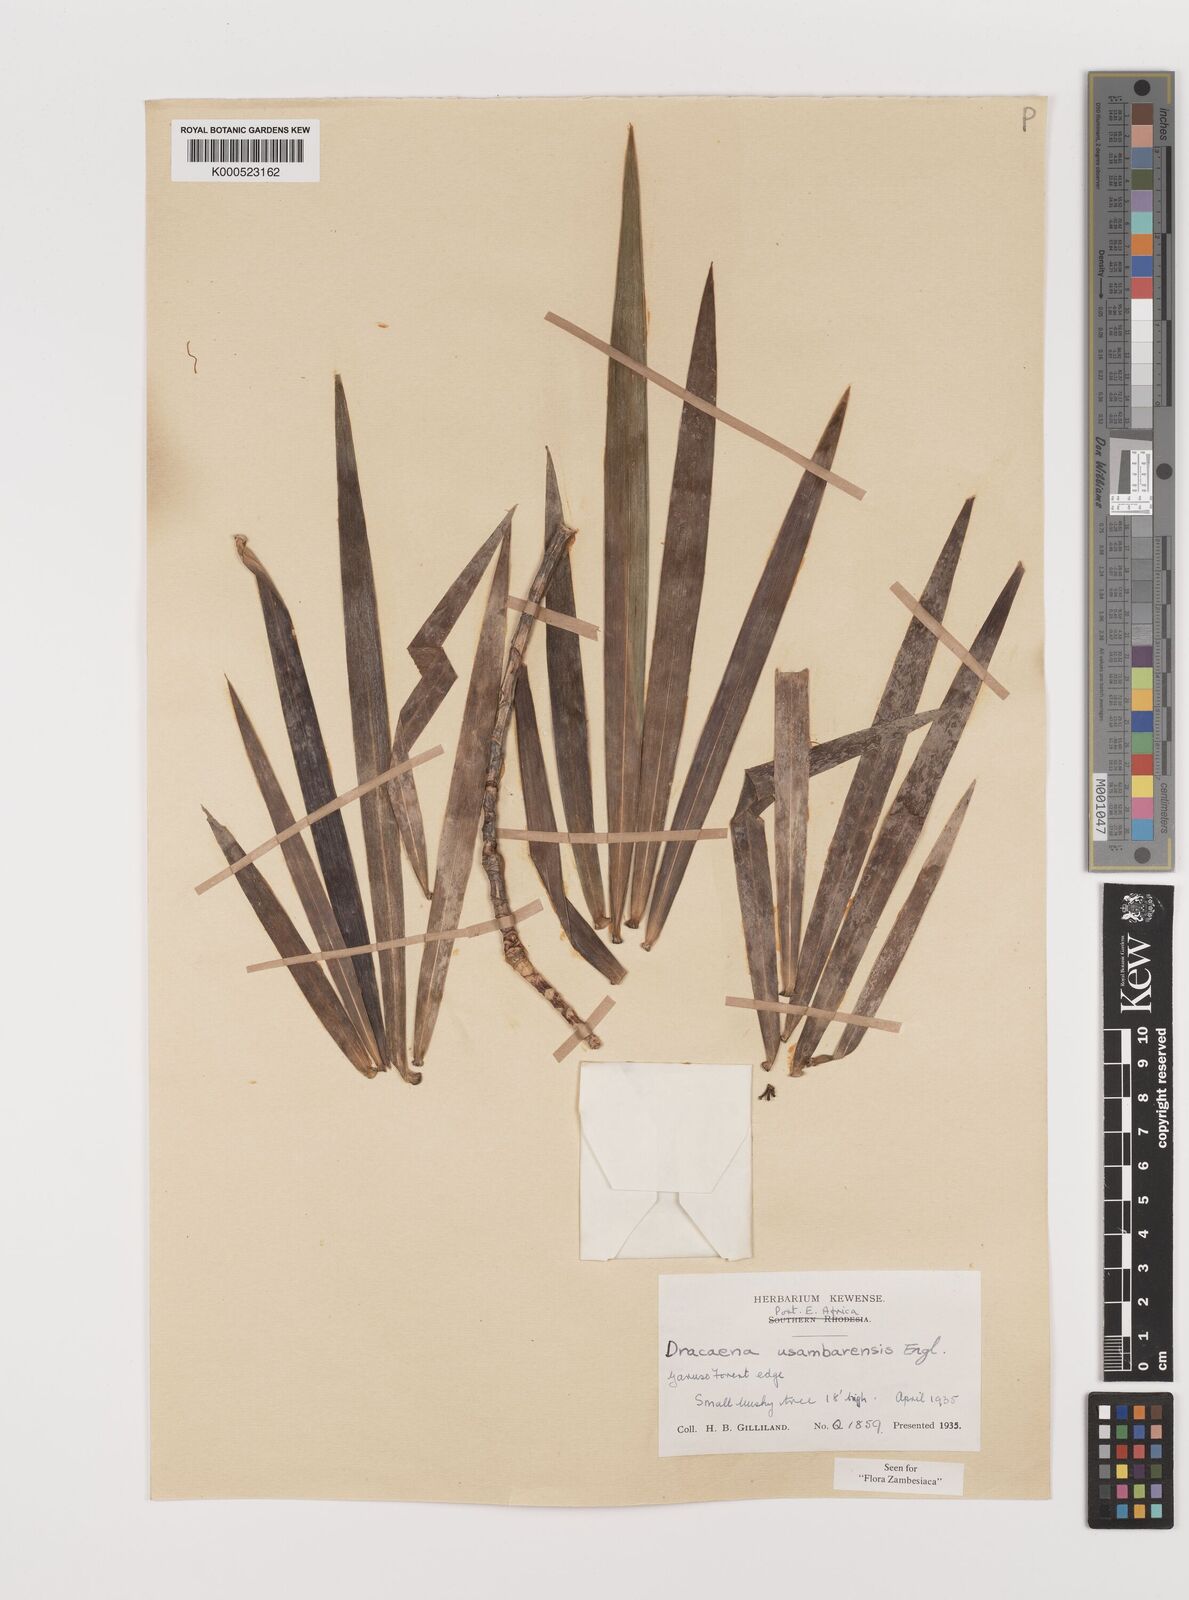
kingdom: Plantae
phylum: Tracheophyta
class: Liliopsida
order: Asparagales
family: Asparagaceae
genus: Dracaena
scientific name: Dracaena usambarensis
